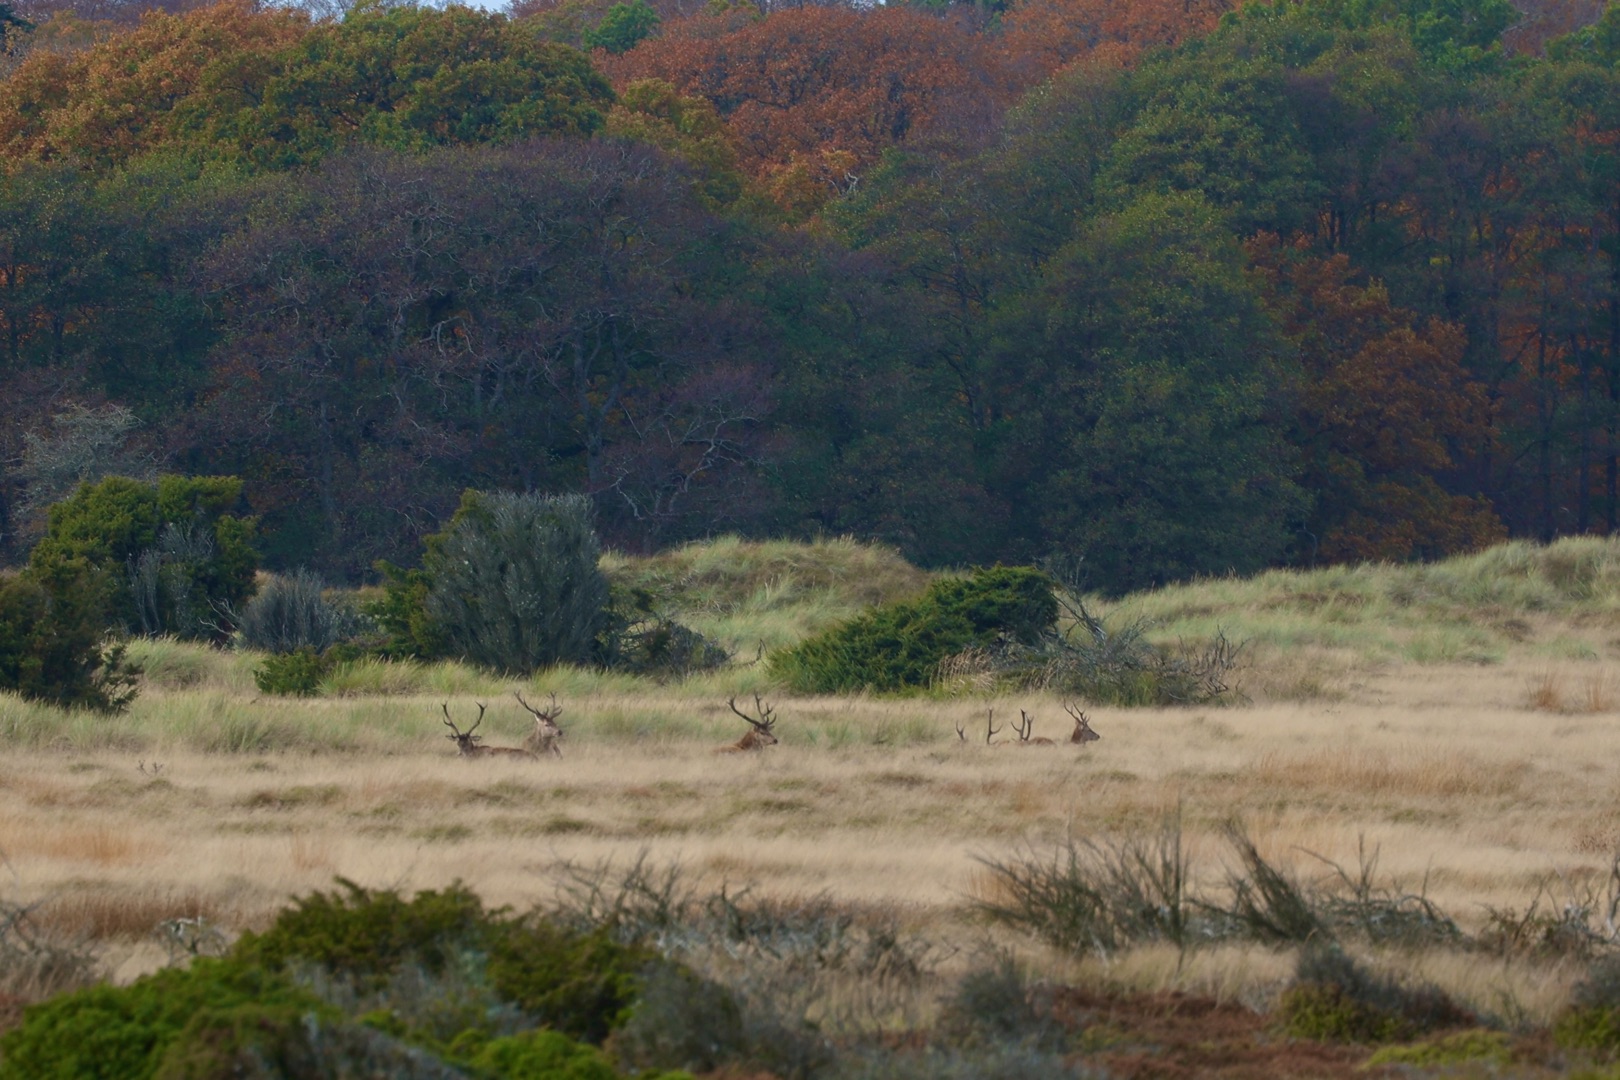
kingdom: Animalia
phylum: Chordata
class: Mammalia
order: Artiodactyla
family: Cervidae
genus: Cervus
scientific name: Cervus elaphus
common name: Krondyr
